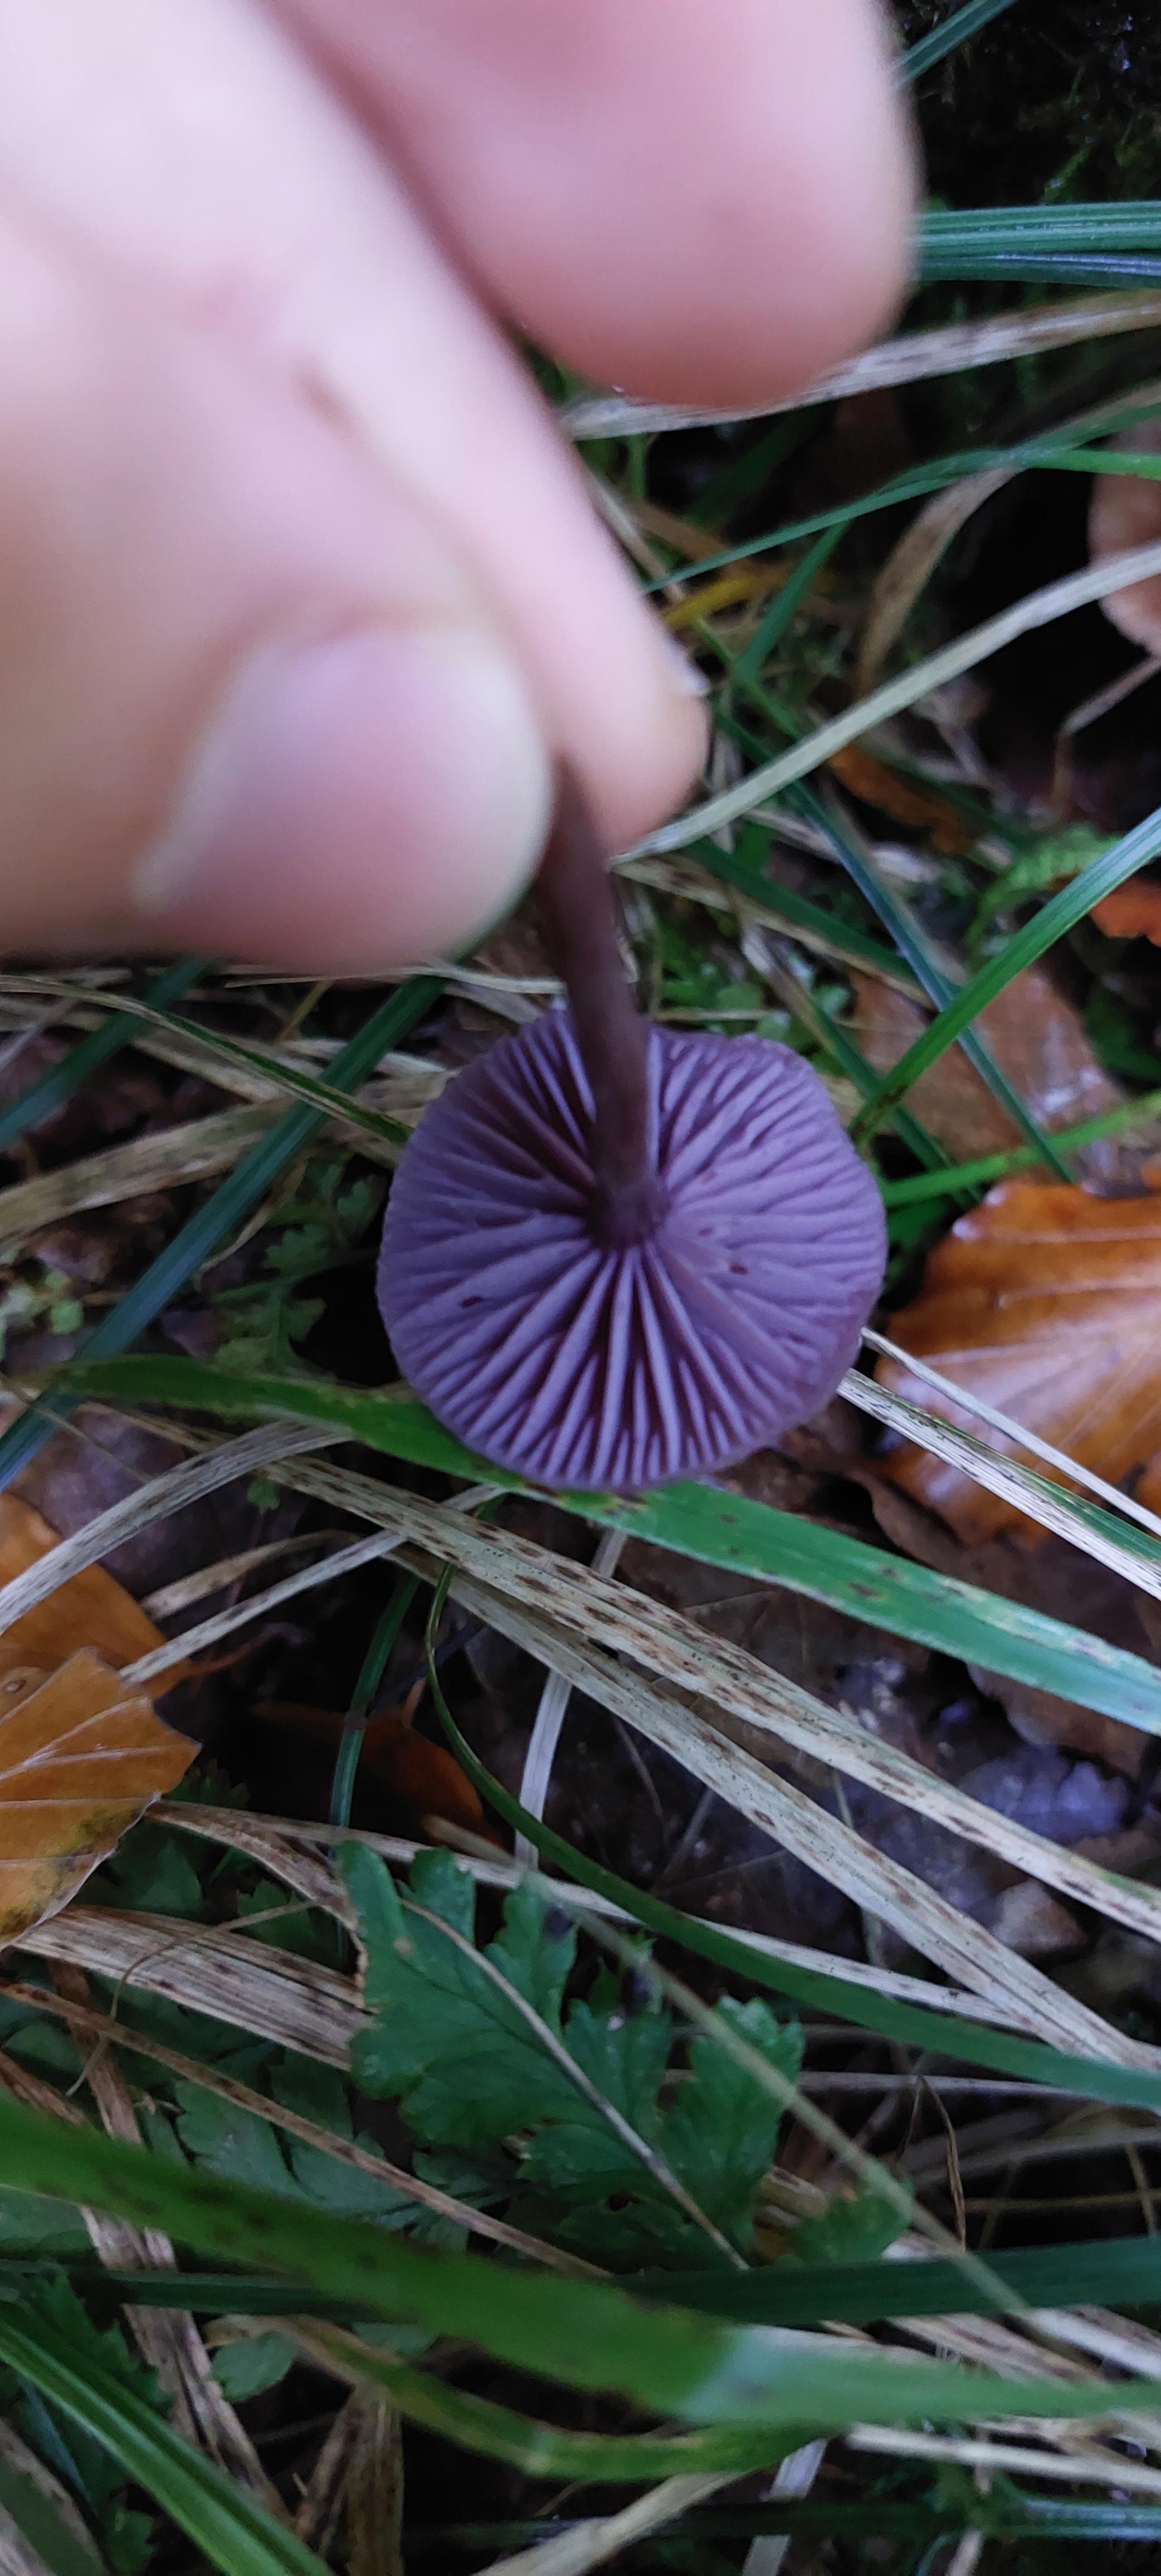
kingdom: Fungi
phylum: Basidiomycota
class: Agaricomycetes
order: Agaricales
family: Hydnangiaceae
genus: Laccaria
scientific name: Laccaria amethystina
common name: violet ametysthat
